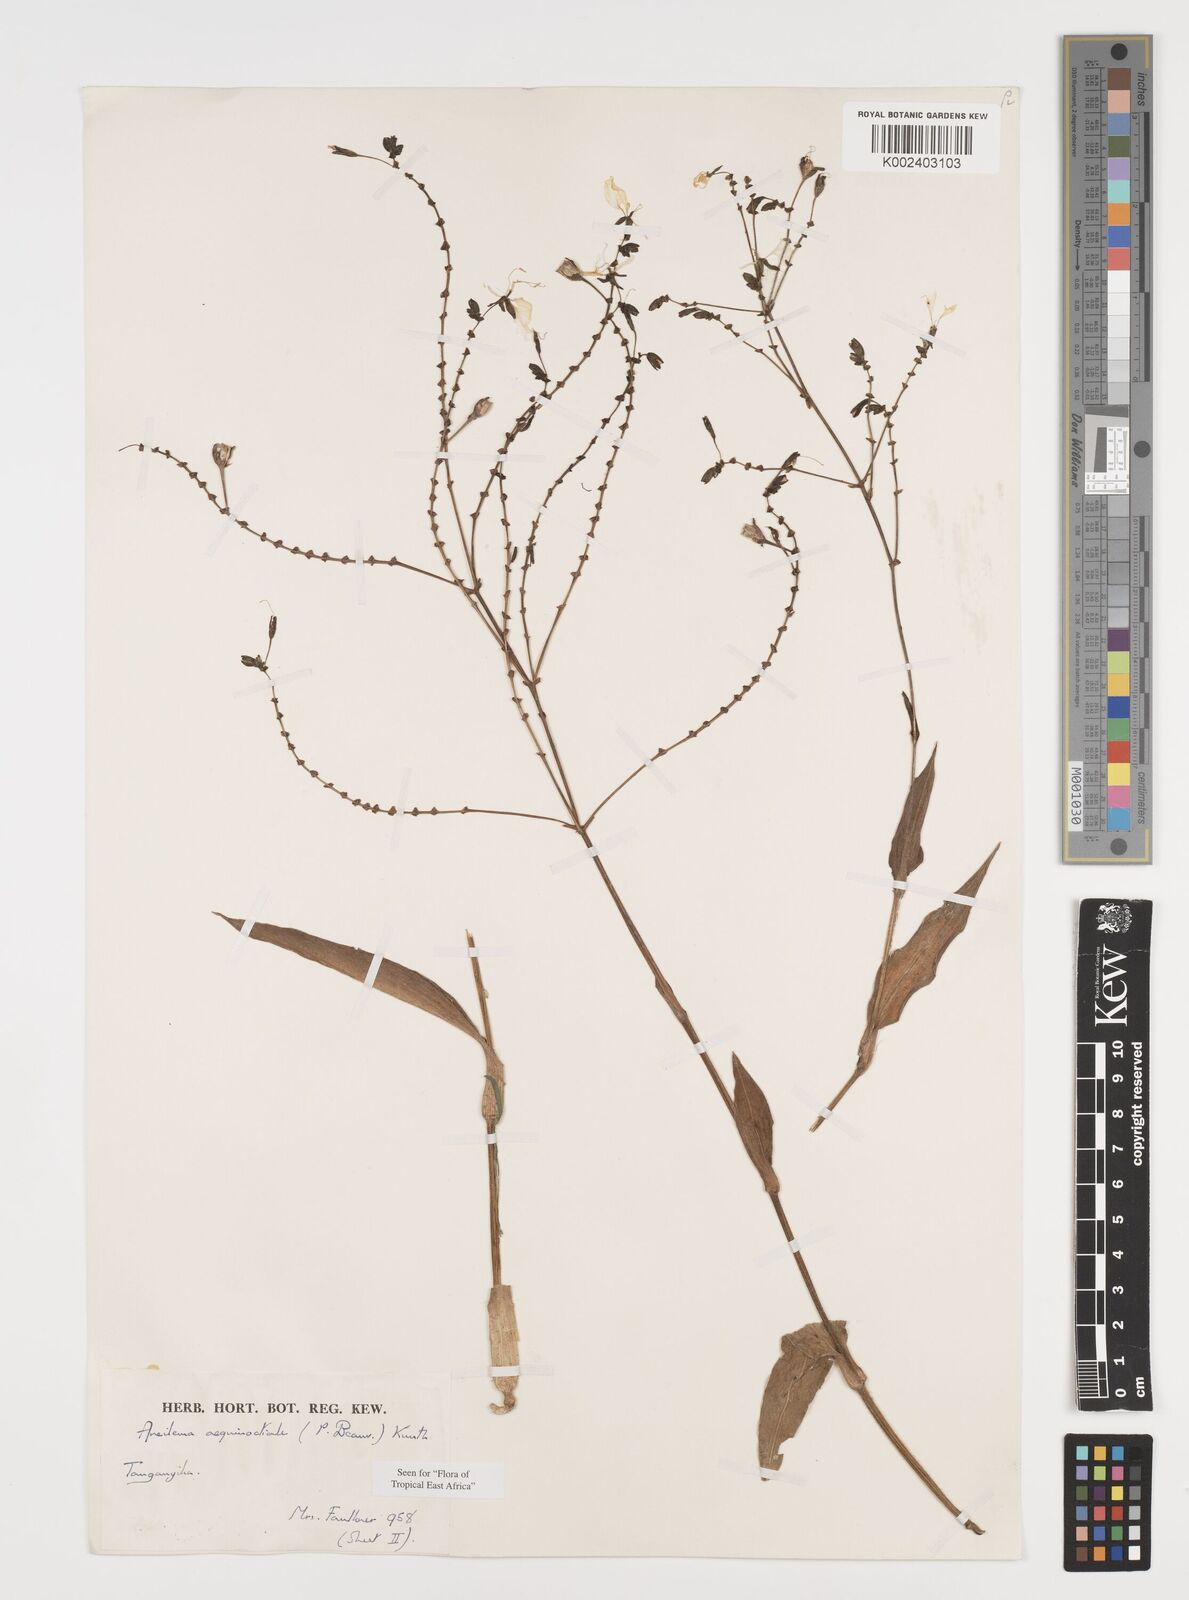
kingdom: Plantae
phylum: Tracheophyta
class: Liliopsida
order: Commelinales
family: Commelinaceae
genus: Aneilema
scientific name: Aneilema aequinoctiale
